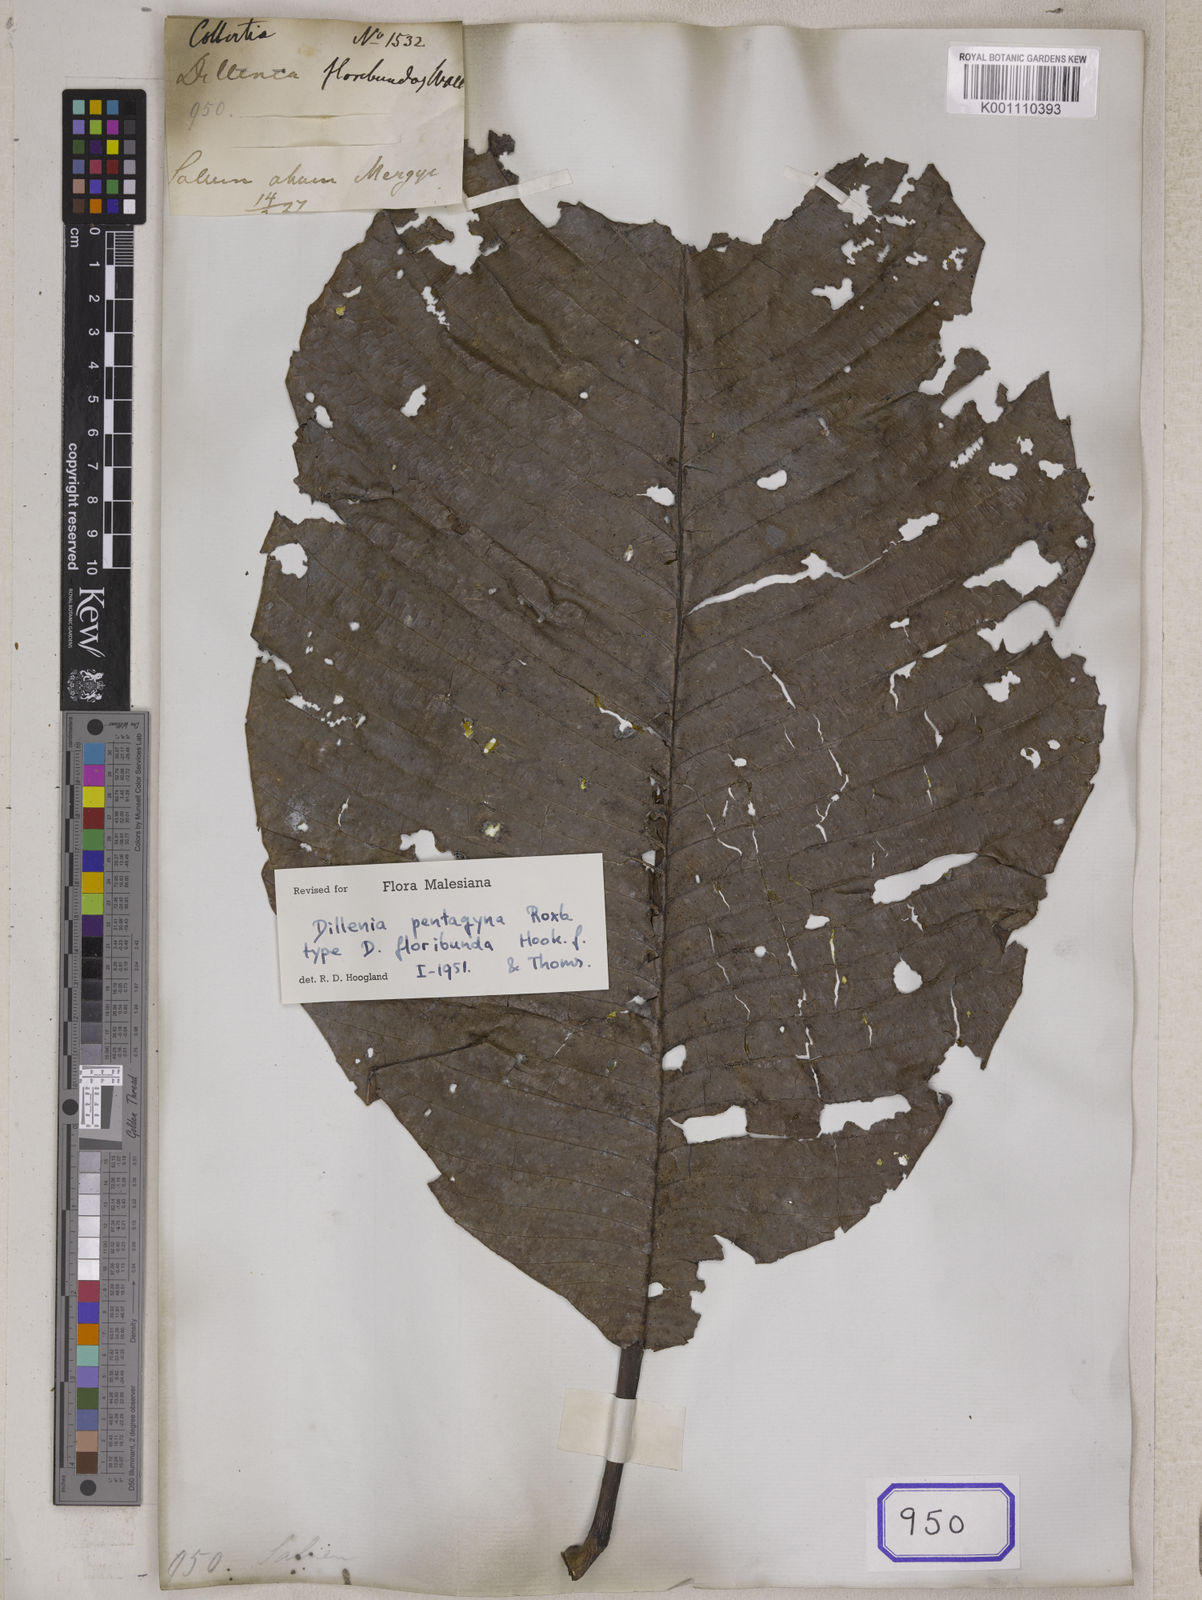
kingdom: Plantae
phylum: Tracheophyta
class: Magnoliopsida
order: Dilleniales
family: Dilleniaceae
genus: Dillenia
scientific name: Dillenia pentagyna
